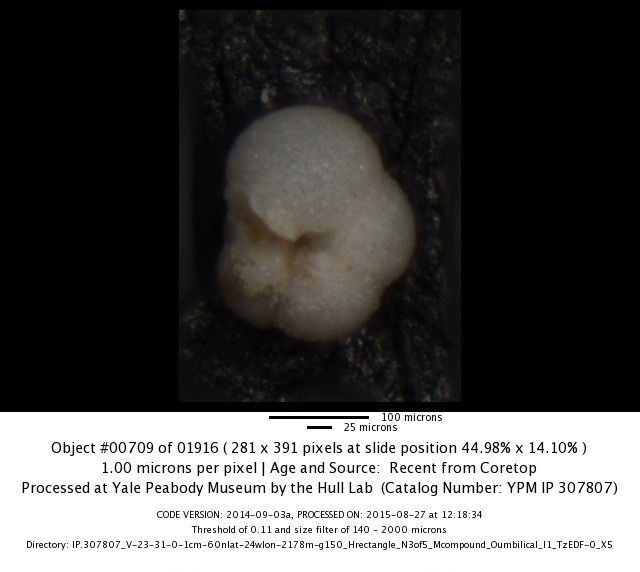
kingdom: Chromista
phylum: Foraminifera
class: Globothalamea
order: Rotaliida
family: Globorotaliidae
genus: Neogloboquadrina
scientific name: Neogloboquadrina incompta
